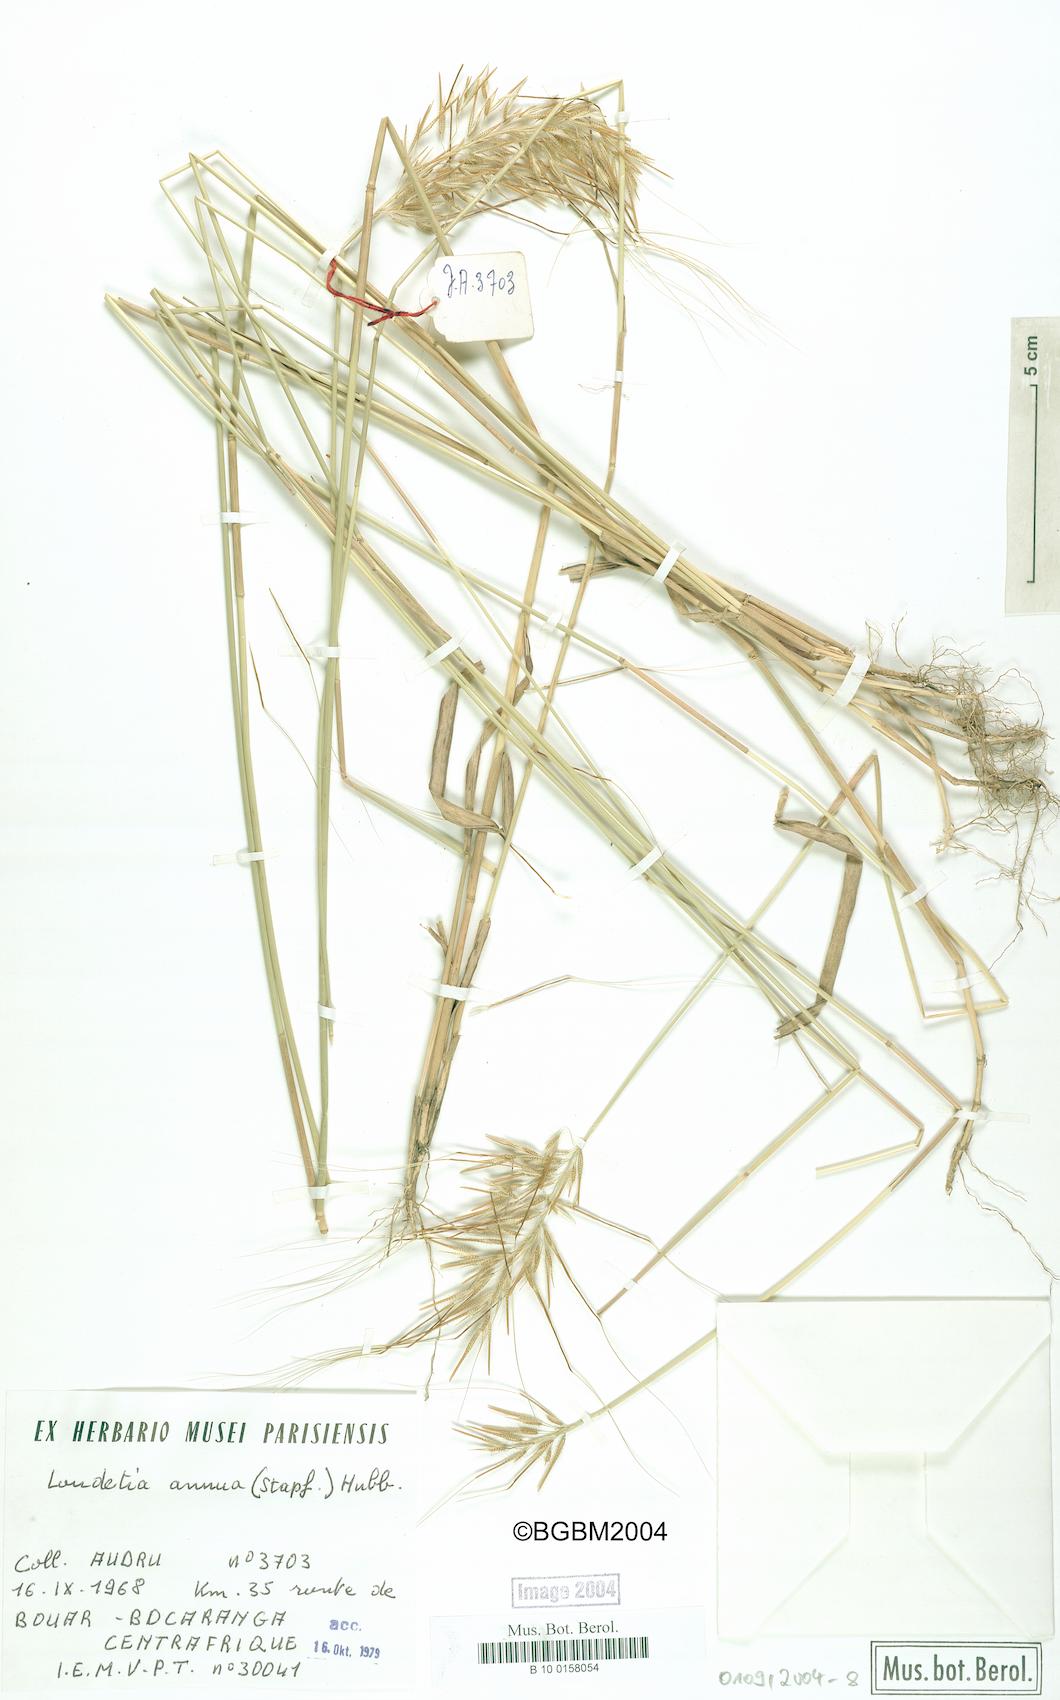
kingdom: Plantae
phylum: Tracheophyta
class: Liliopsida
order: Poales
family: Poaceae
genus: Loudetia
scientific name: Loudetia annua
